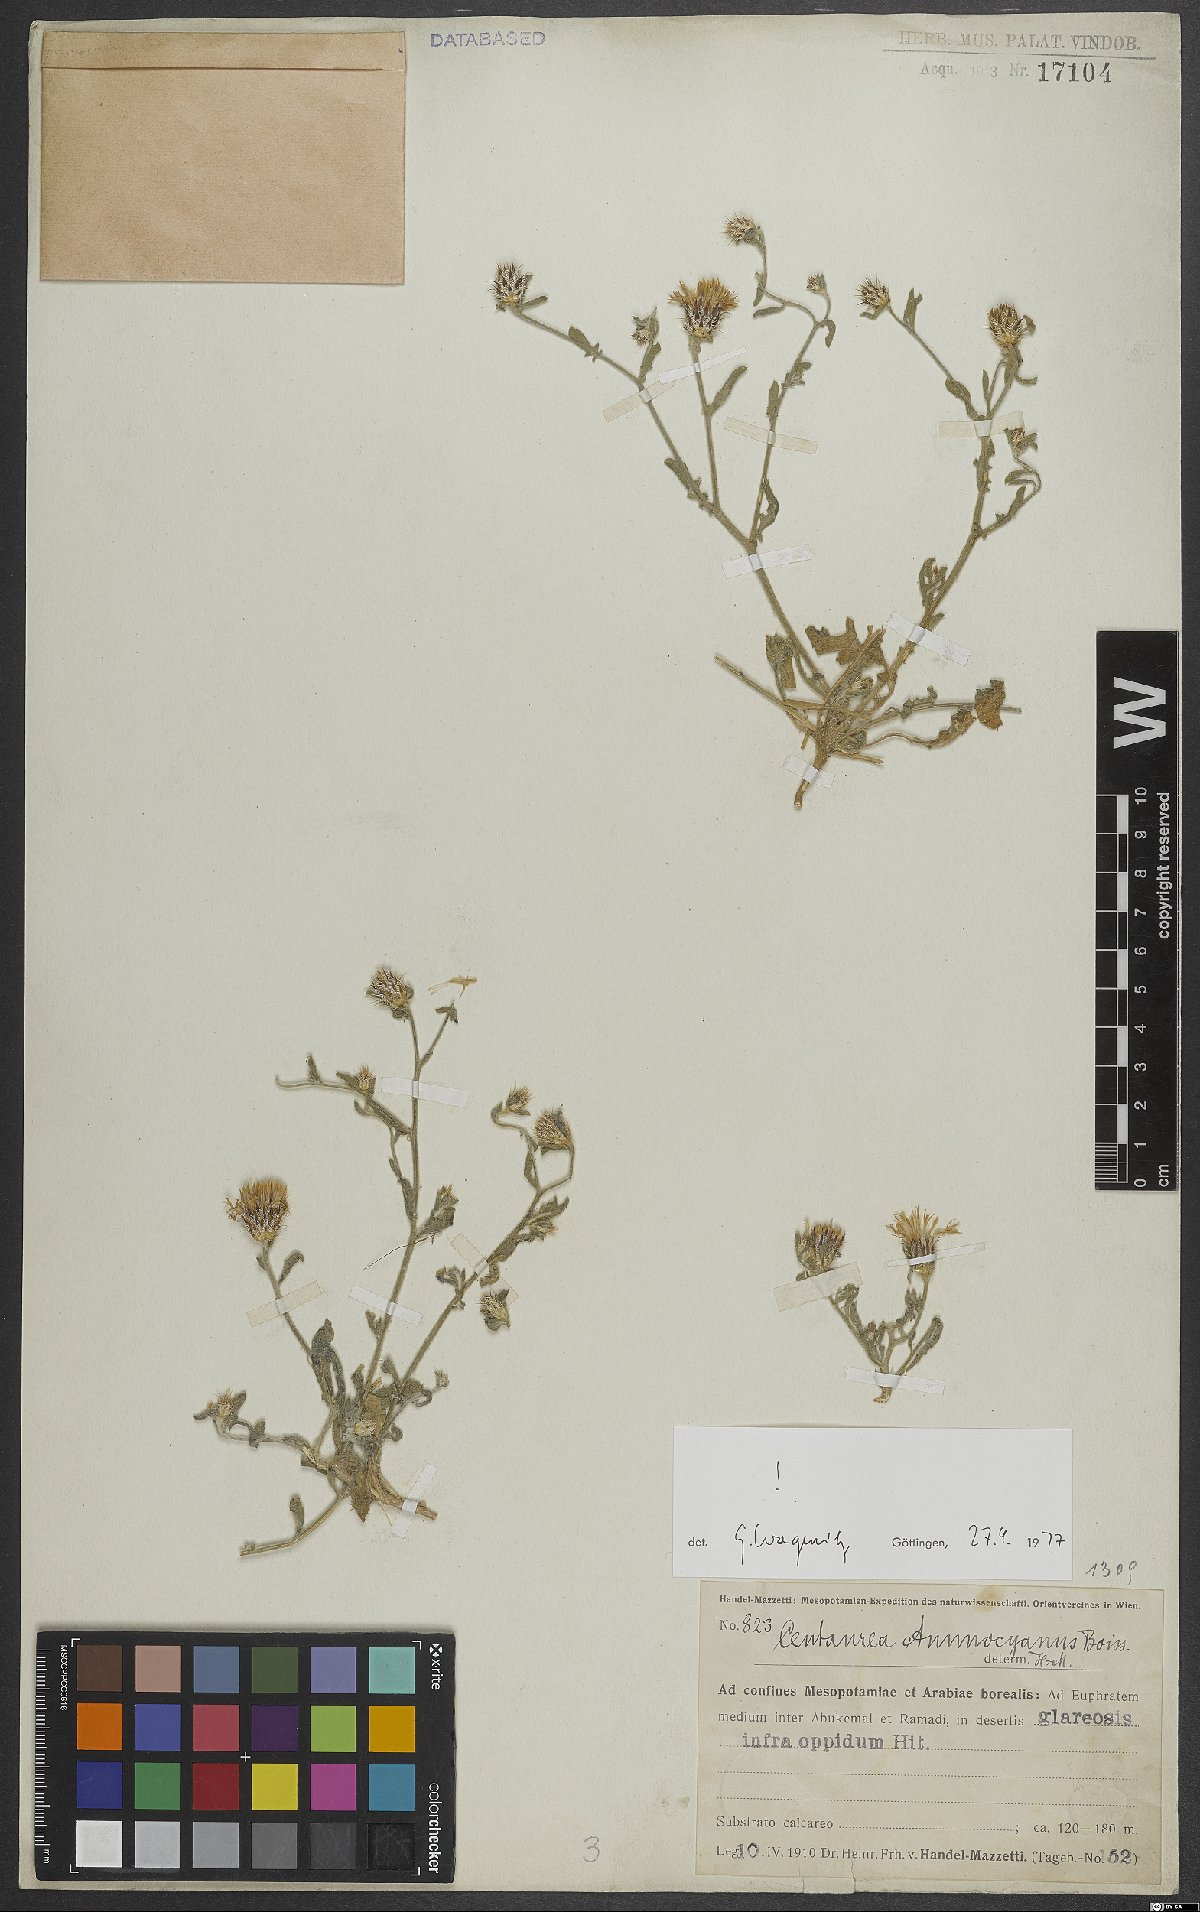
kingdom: Plantae
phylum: Tracheophyta
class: Magnoliopsida
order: Asterales
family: Asteraceae
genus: Centaurea
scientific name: Centaurea ammocyanus
